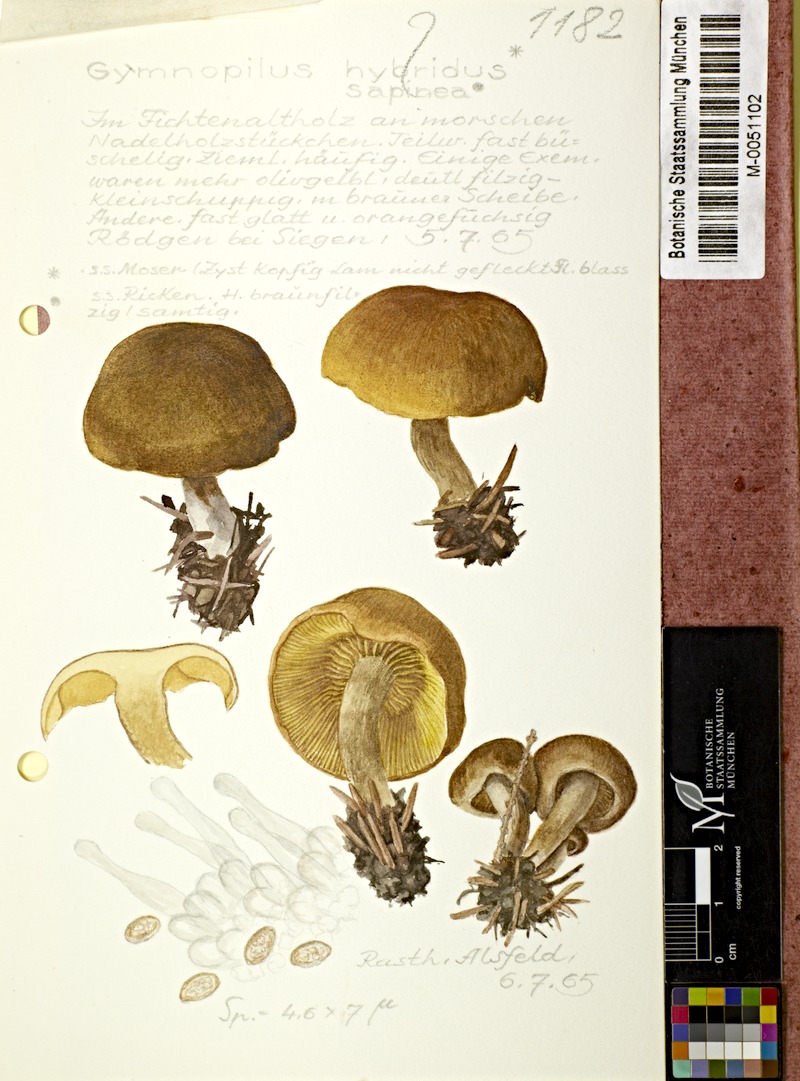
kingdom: Fungi
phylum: Basidiomycota
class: Agaricomycetes
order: Agaricales
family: Hymenogastraceae
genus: Gymnopilus
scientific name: Gymnopilus penetrans
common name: Common rustgill
